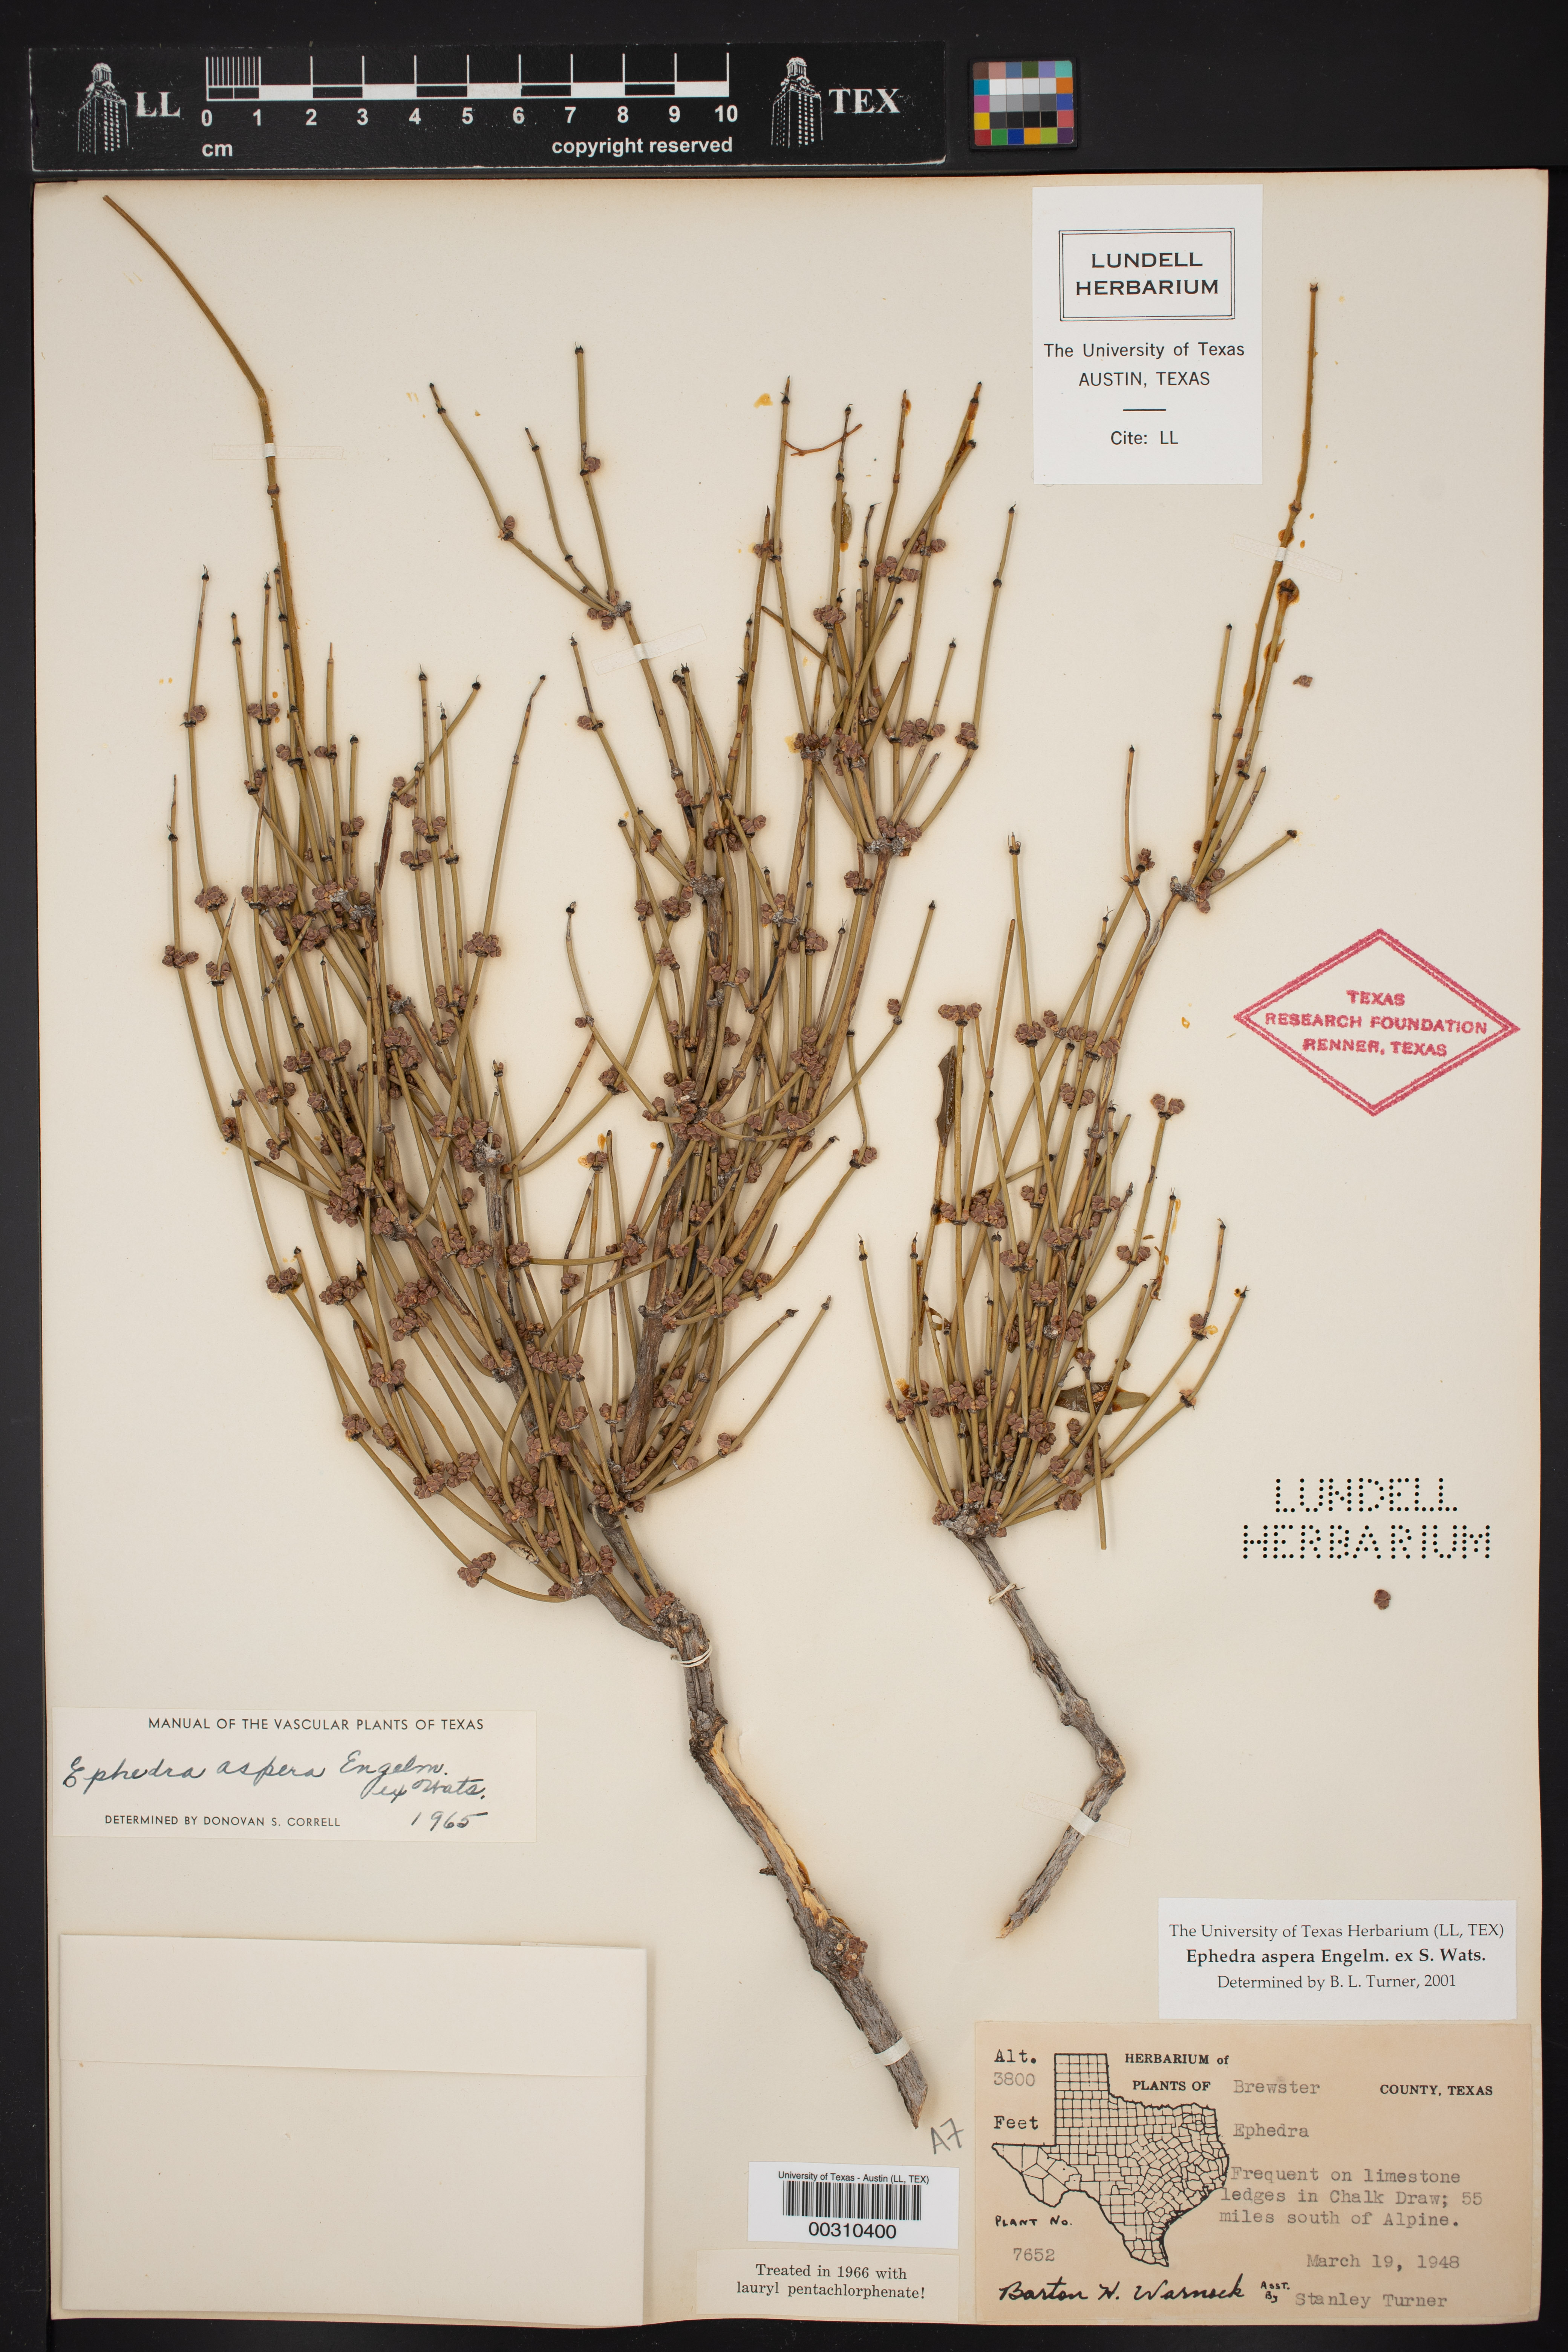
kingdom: Plantae
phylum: Tracheophyta
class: Gnetopsida
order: Ephedrales
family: Ephedraceae
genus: Ephedra
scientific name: Ephedra aspera
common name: Boundary ephedra
